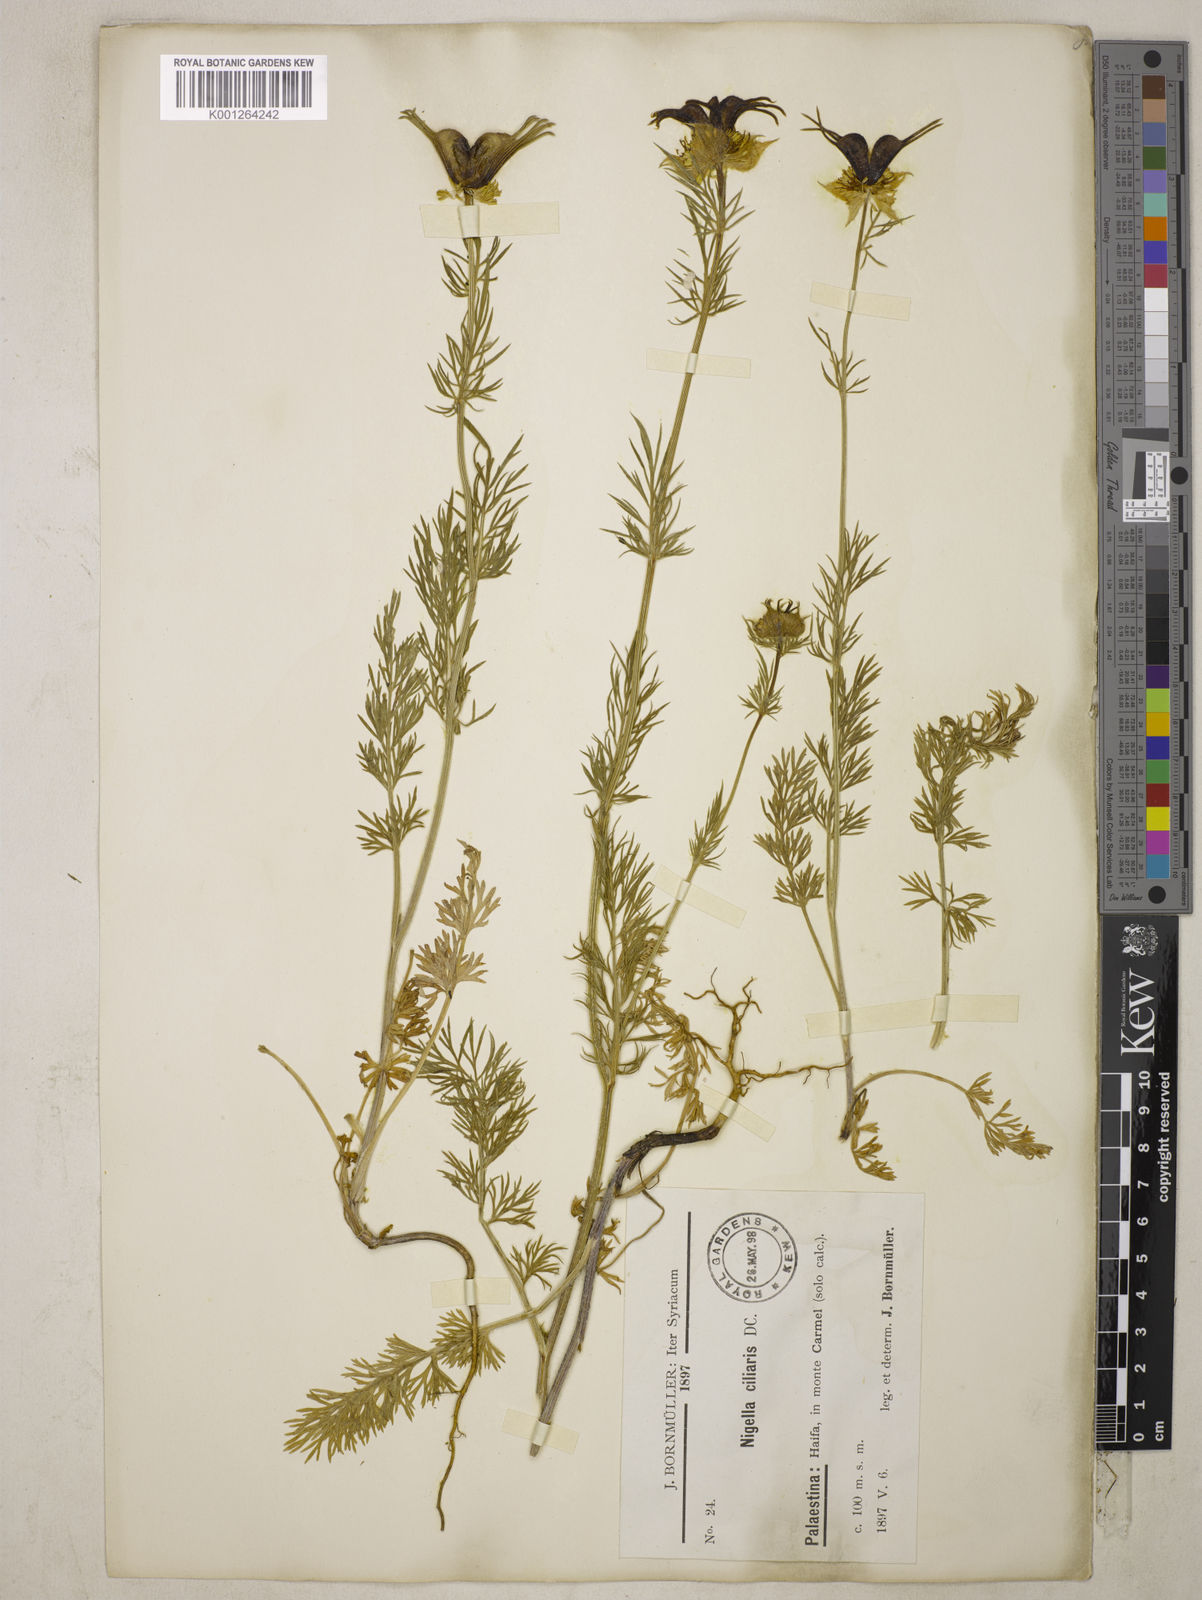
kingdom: Plantae
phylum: Tracheophyta
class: Magnoliopsida
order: Ranunculales
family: Ranunculaceae
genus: Nigella
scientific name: Nigella ciliaris
